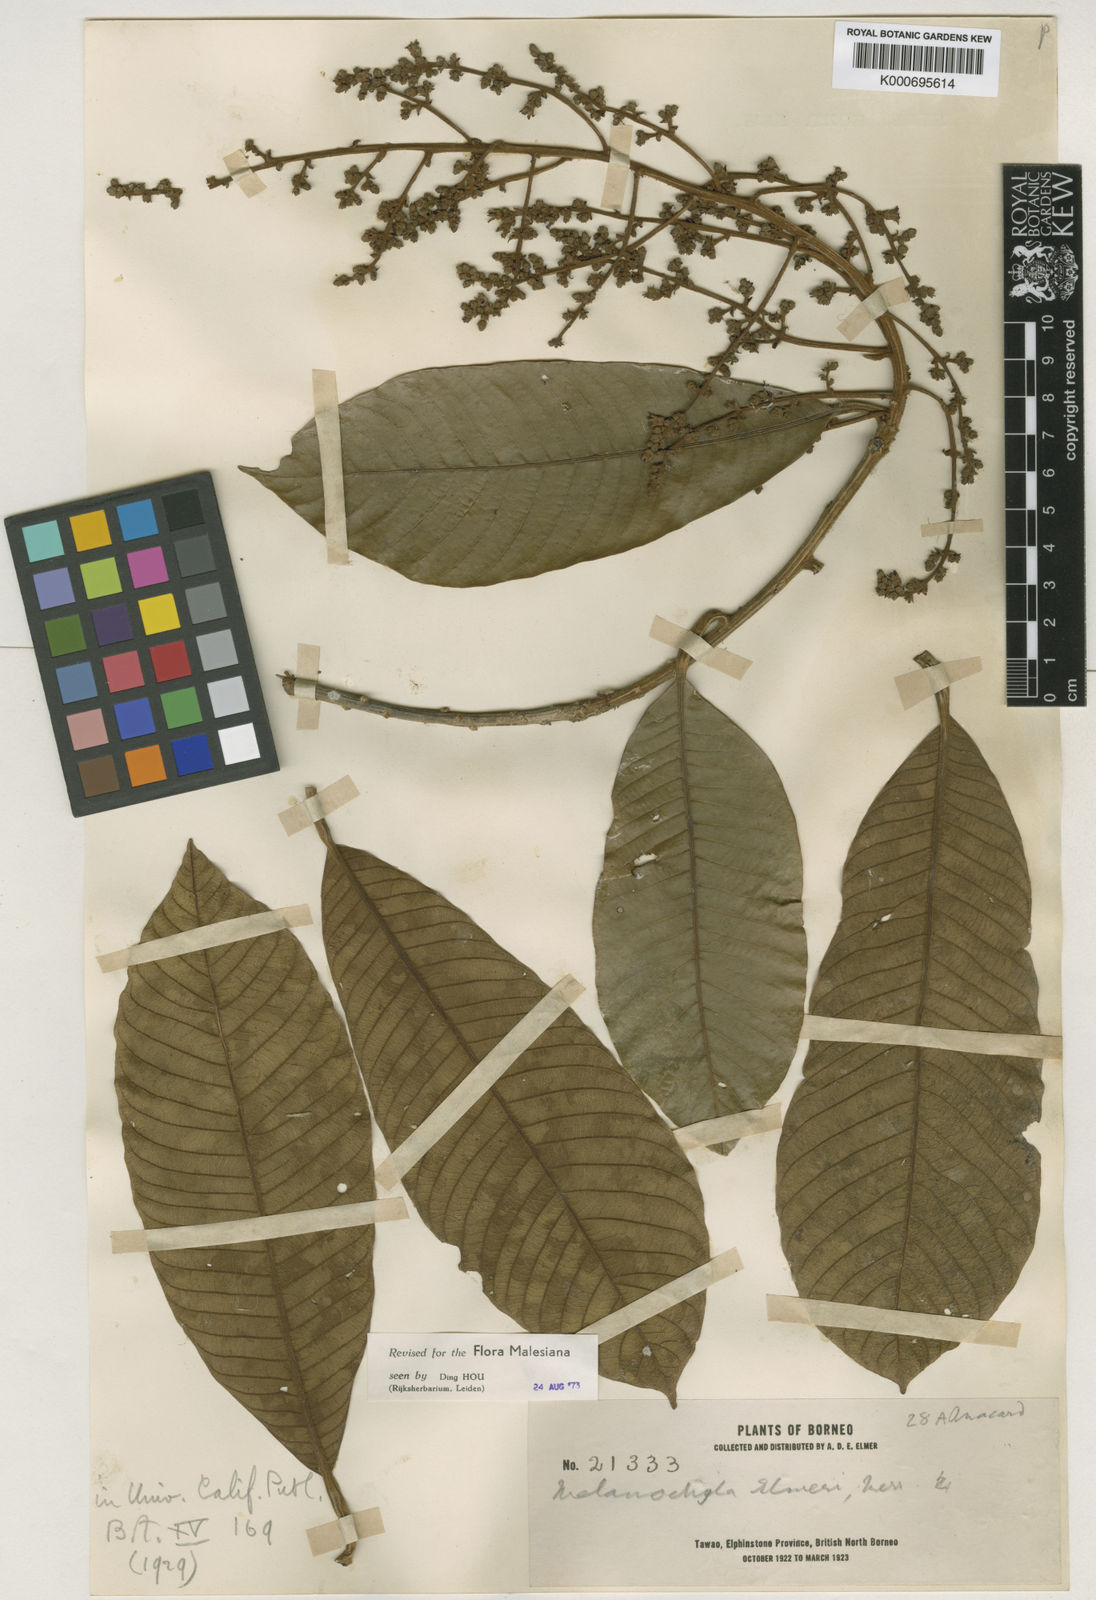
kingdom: Plantae
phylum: Tracheophyta
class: Magnoliopsida
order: Sapindales
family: Anacardiaceae
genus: Melanochyla
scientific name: Melanochyla elmeri
